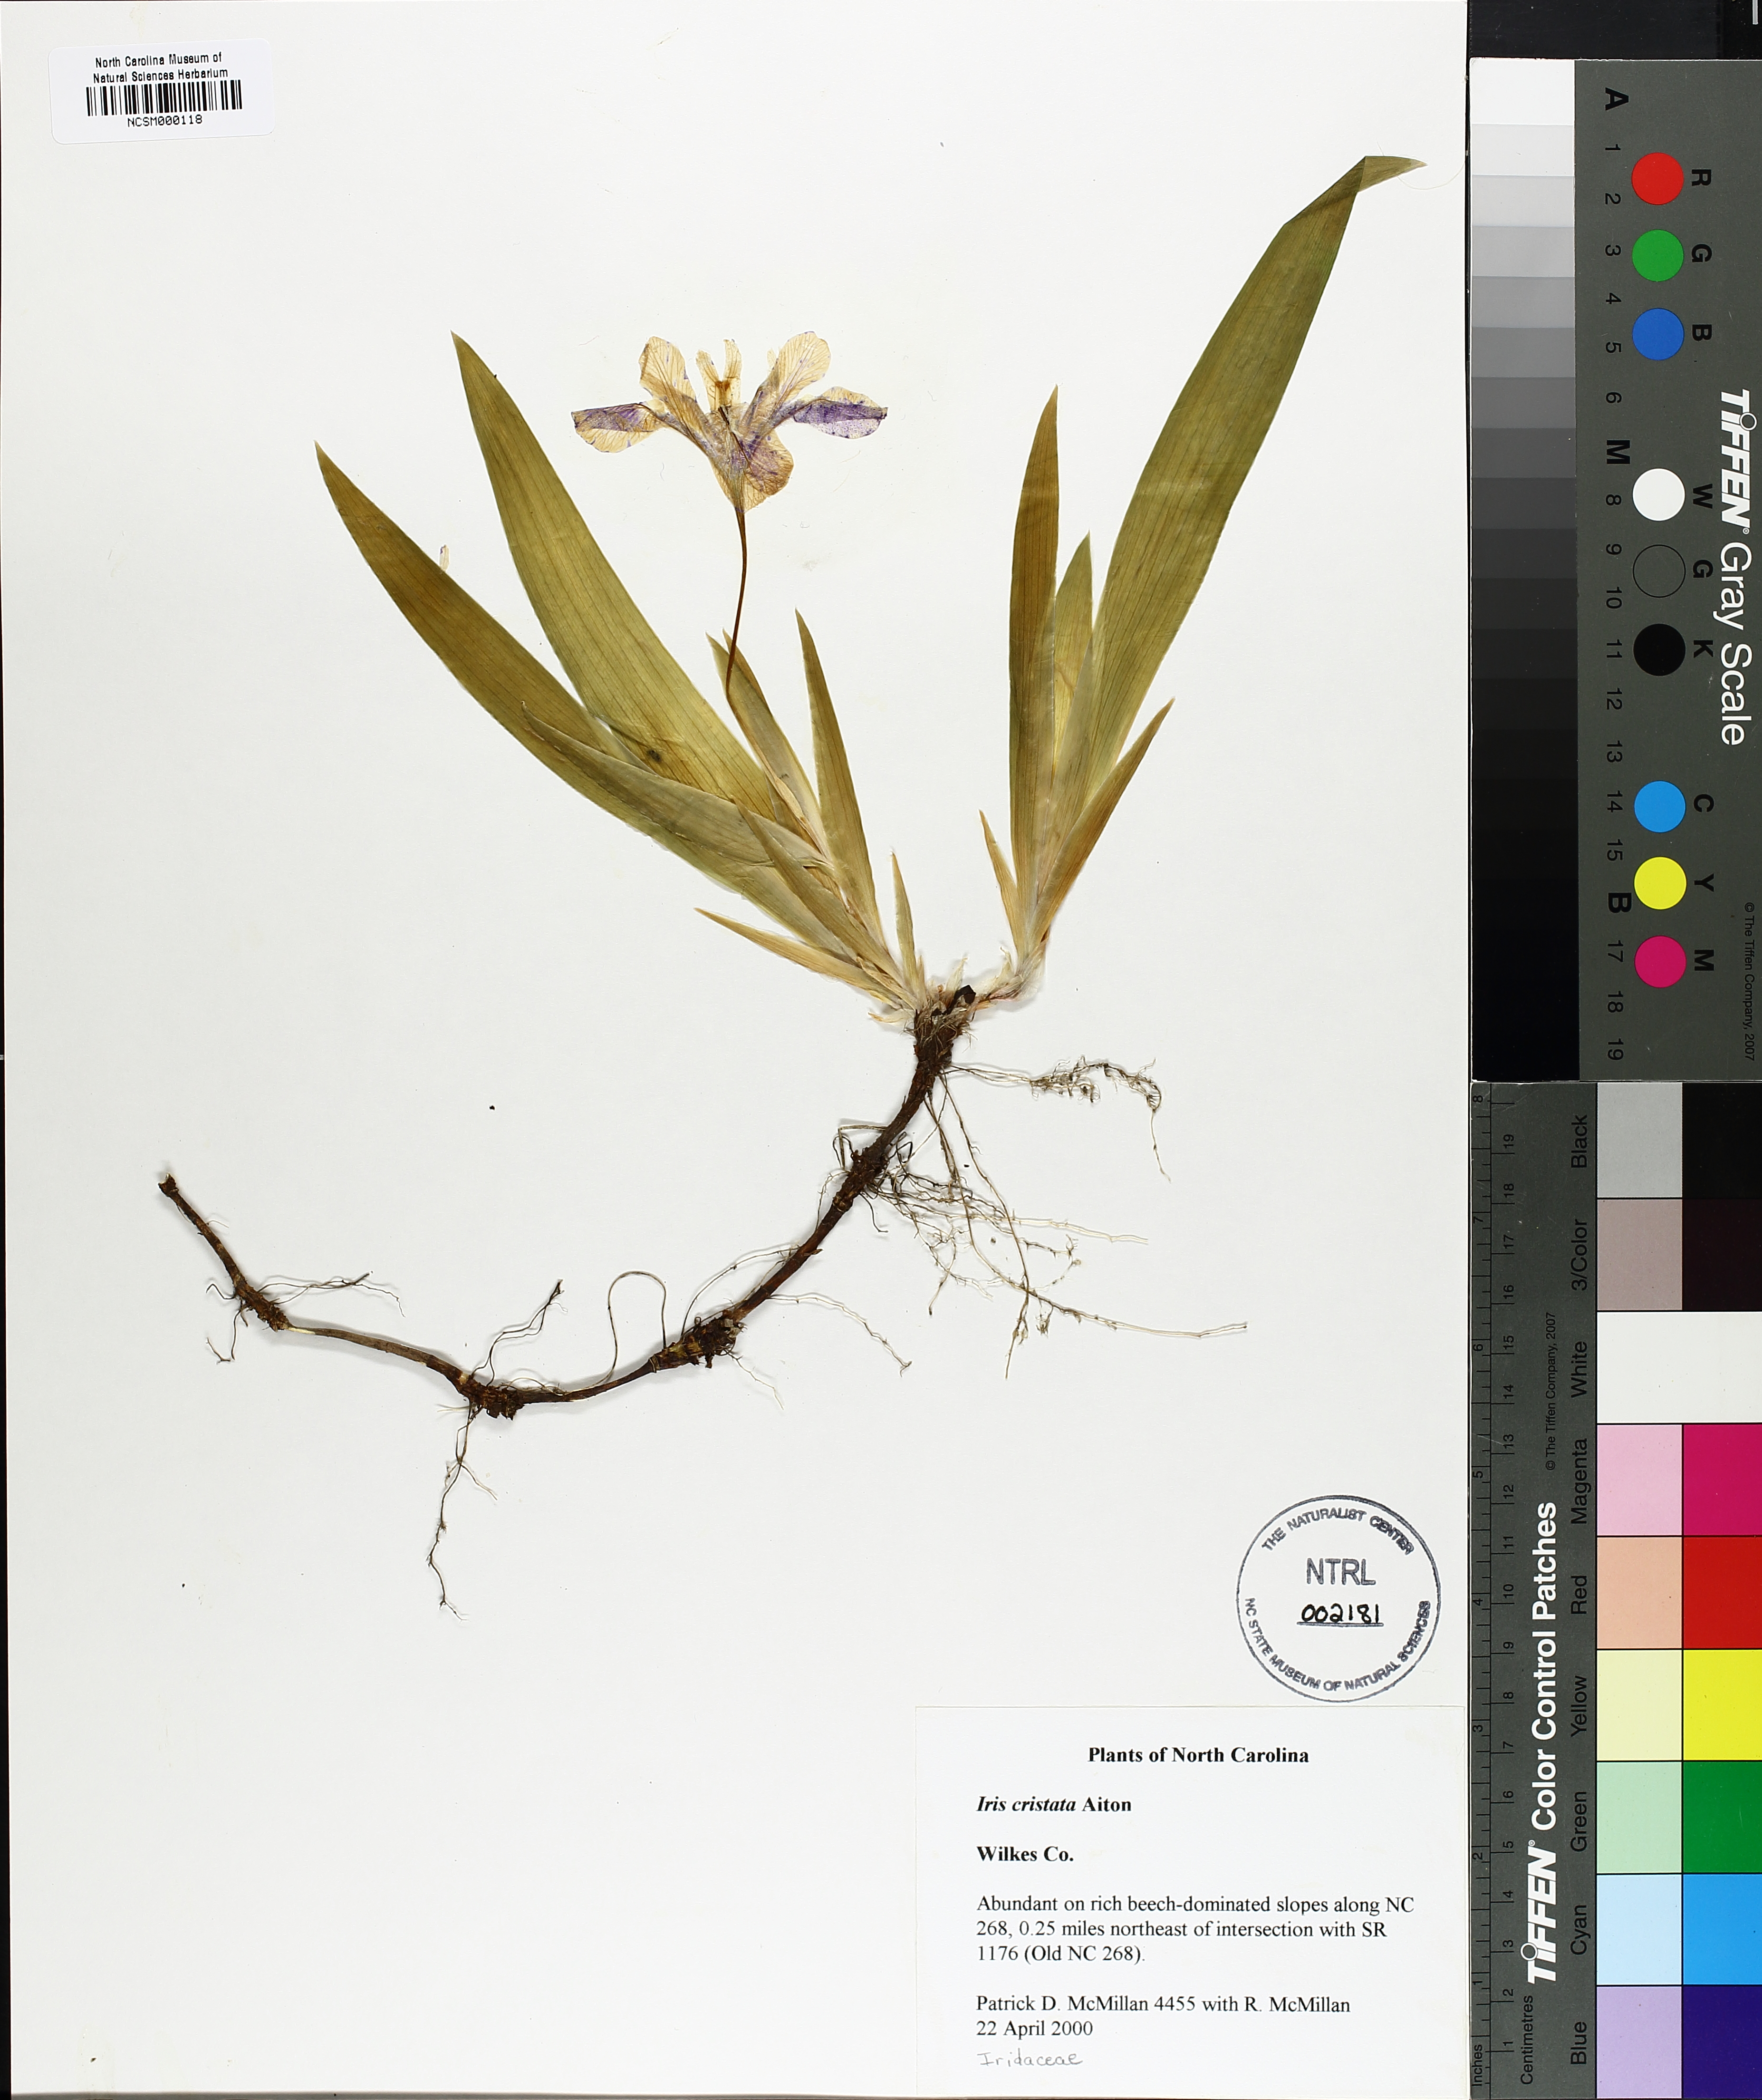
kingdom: Plantae
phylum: Tracheophyta
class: Liliopsida
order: Asparagales
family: Iridaceae
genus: Iris
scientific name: Iris cristata
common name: Crested iris
